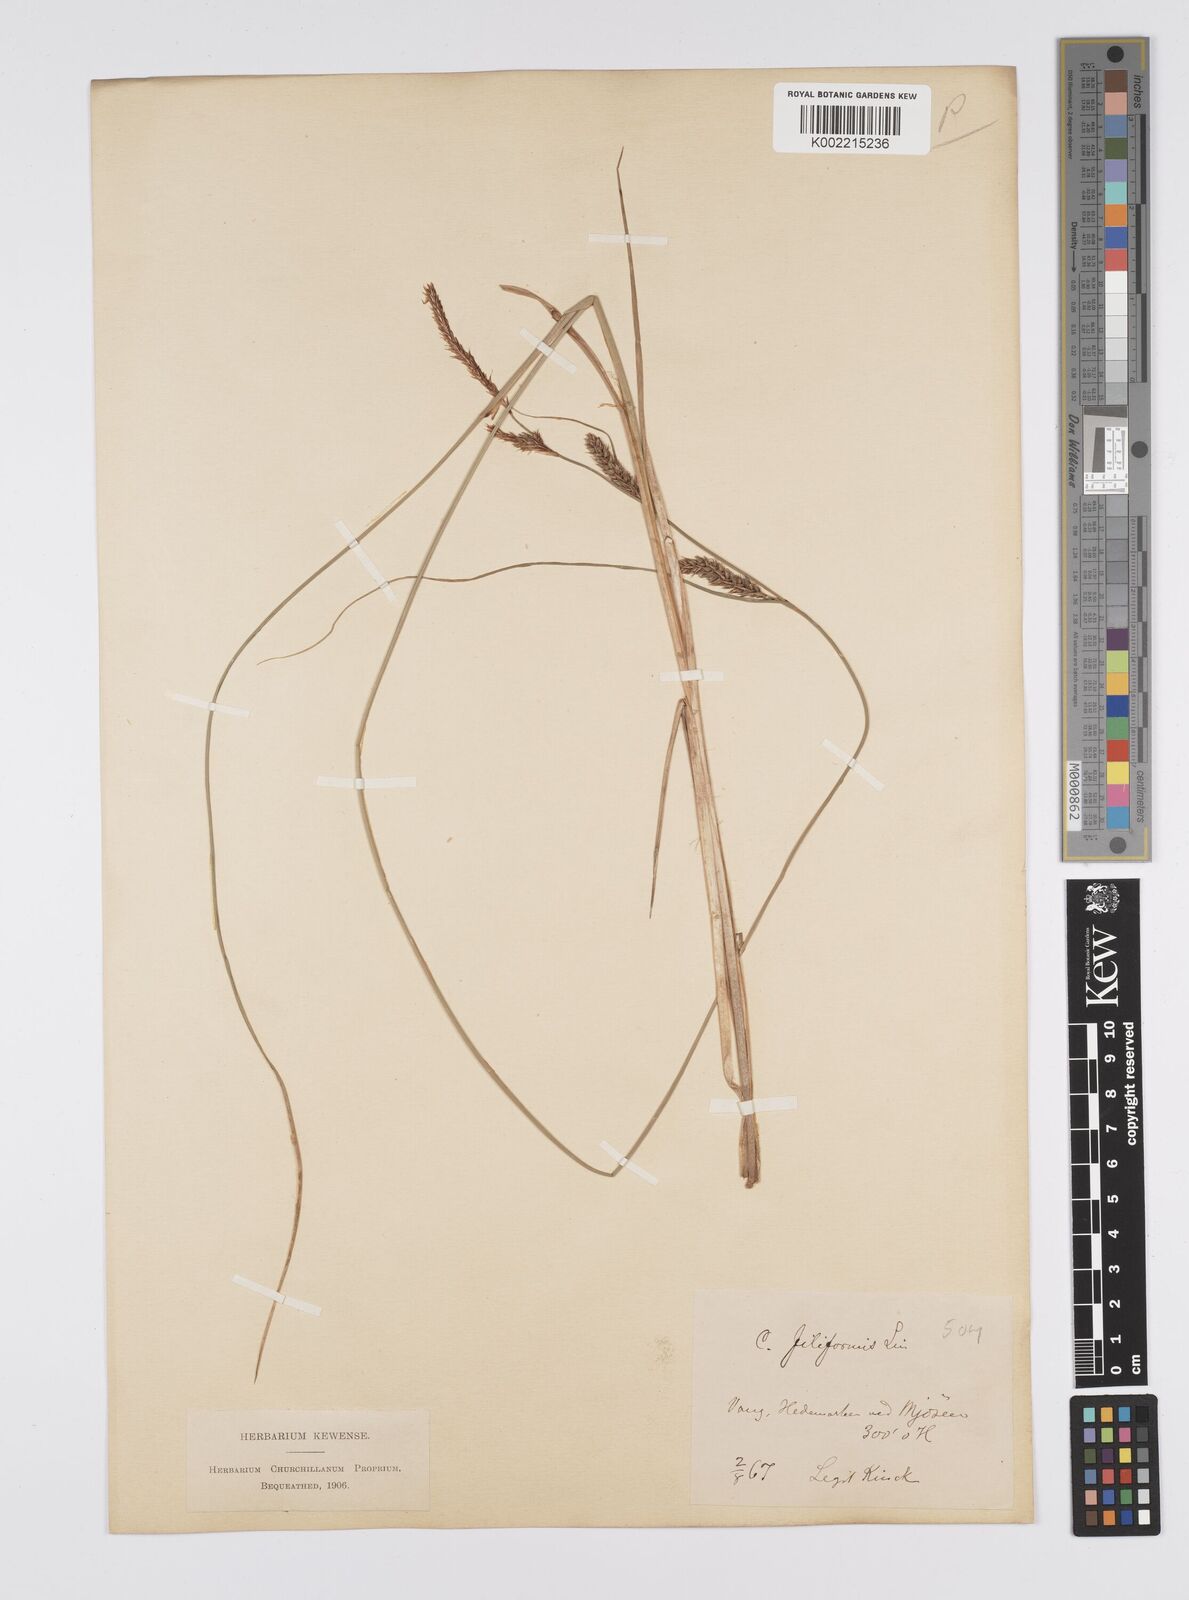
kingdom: Plantae
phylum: Tracheophyta
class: Liliopsida
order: Poales
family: Cyperaceae
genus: Carex
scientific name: Carex lasiocarpa
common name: Slender sedge
